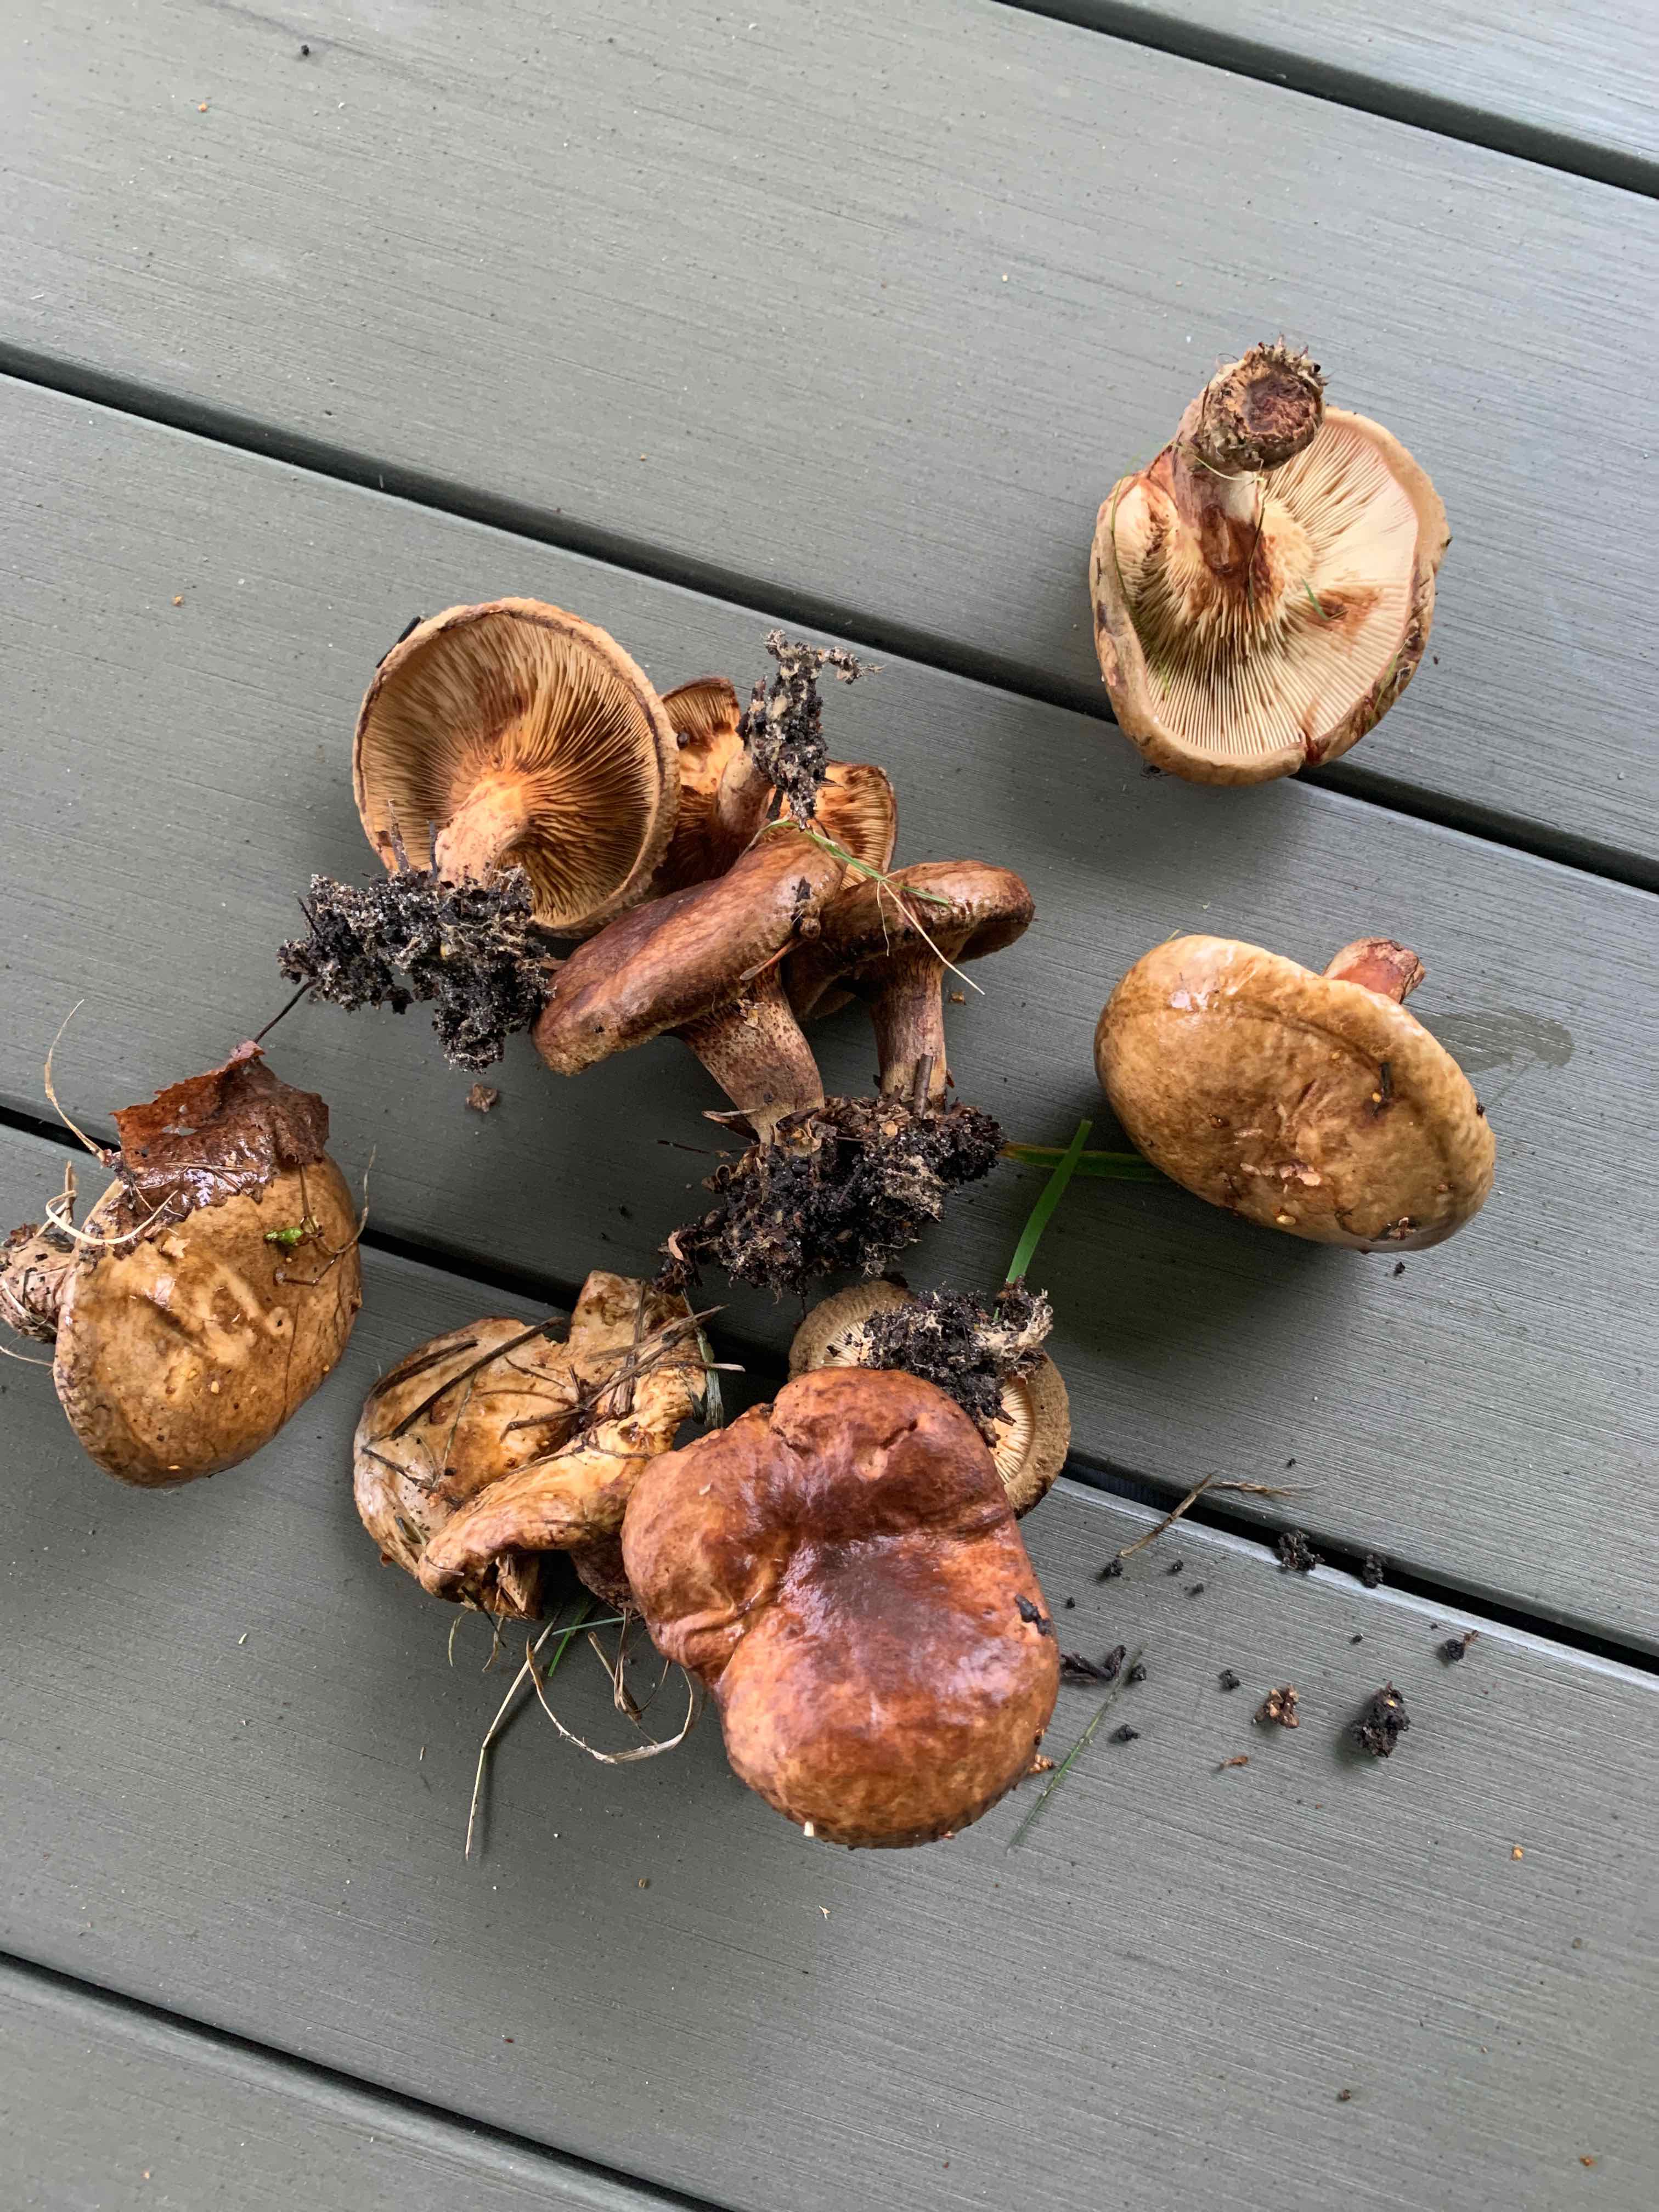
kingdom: Fungi
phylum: Basidiomycota
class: Agaricomycetes
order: Boletales
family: Paxillaceae
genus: Paxillus
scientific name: Paxillus involutus
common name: almindelig netbladhat
